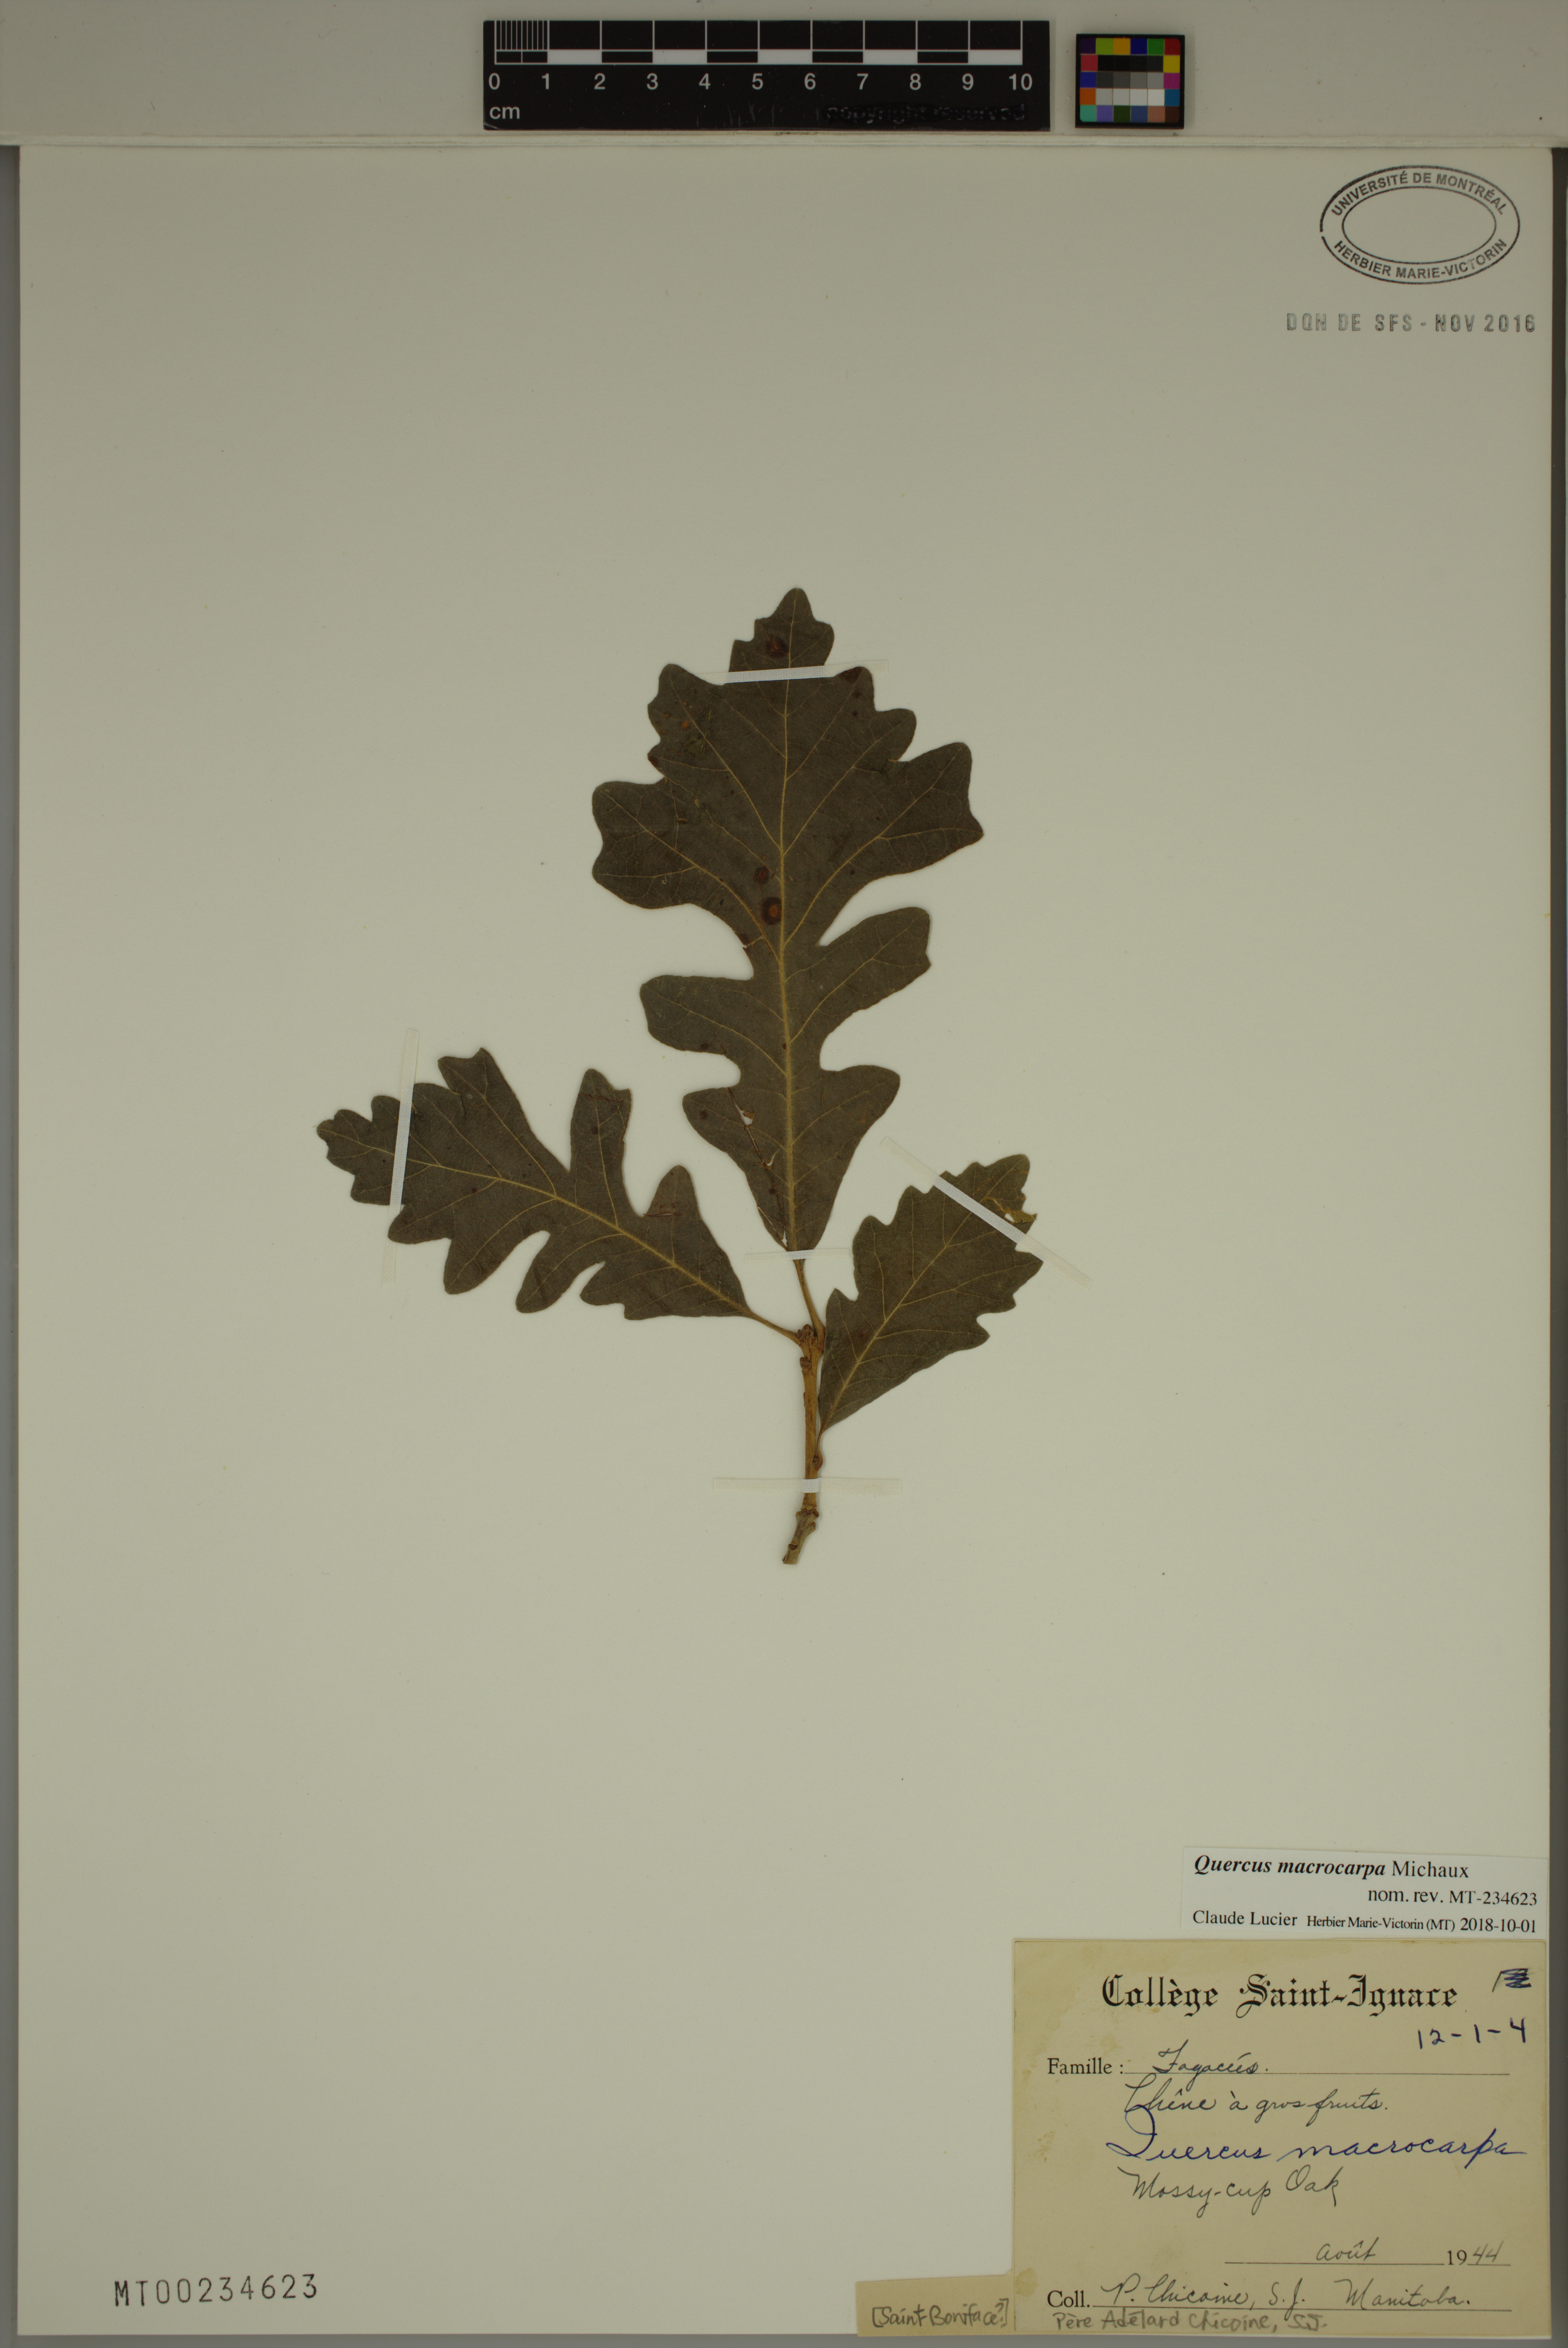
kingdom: Plantae
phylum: Tracheophyta
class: Magnoliopsida
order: Fagales
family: Fagaceae
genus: Quercus
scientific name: Quercus macrocarpa
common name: Bur oak
